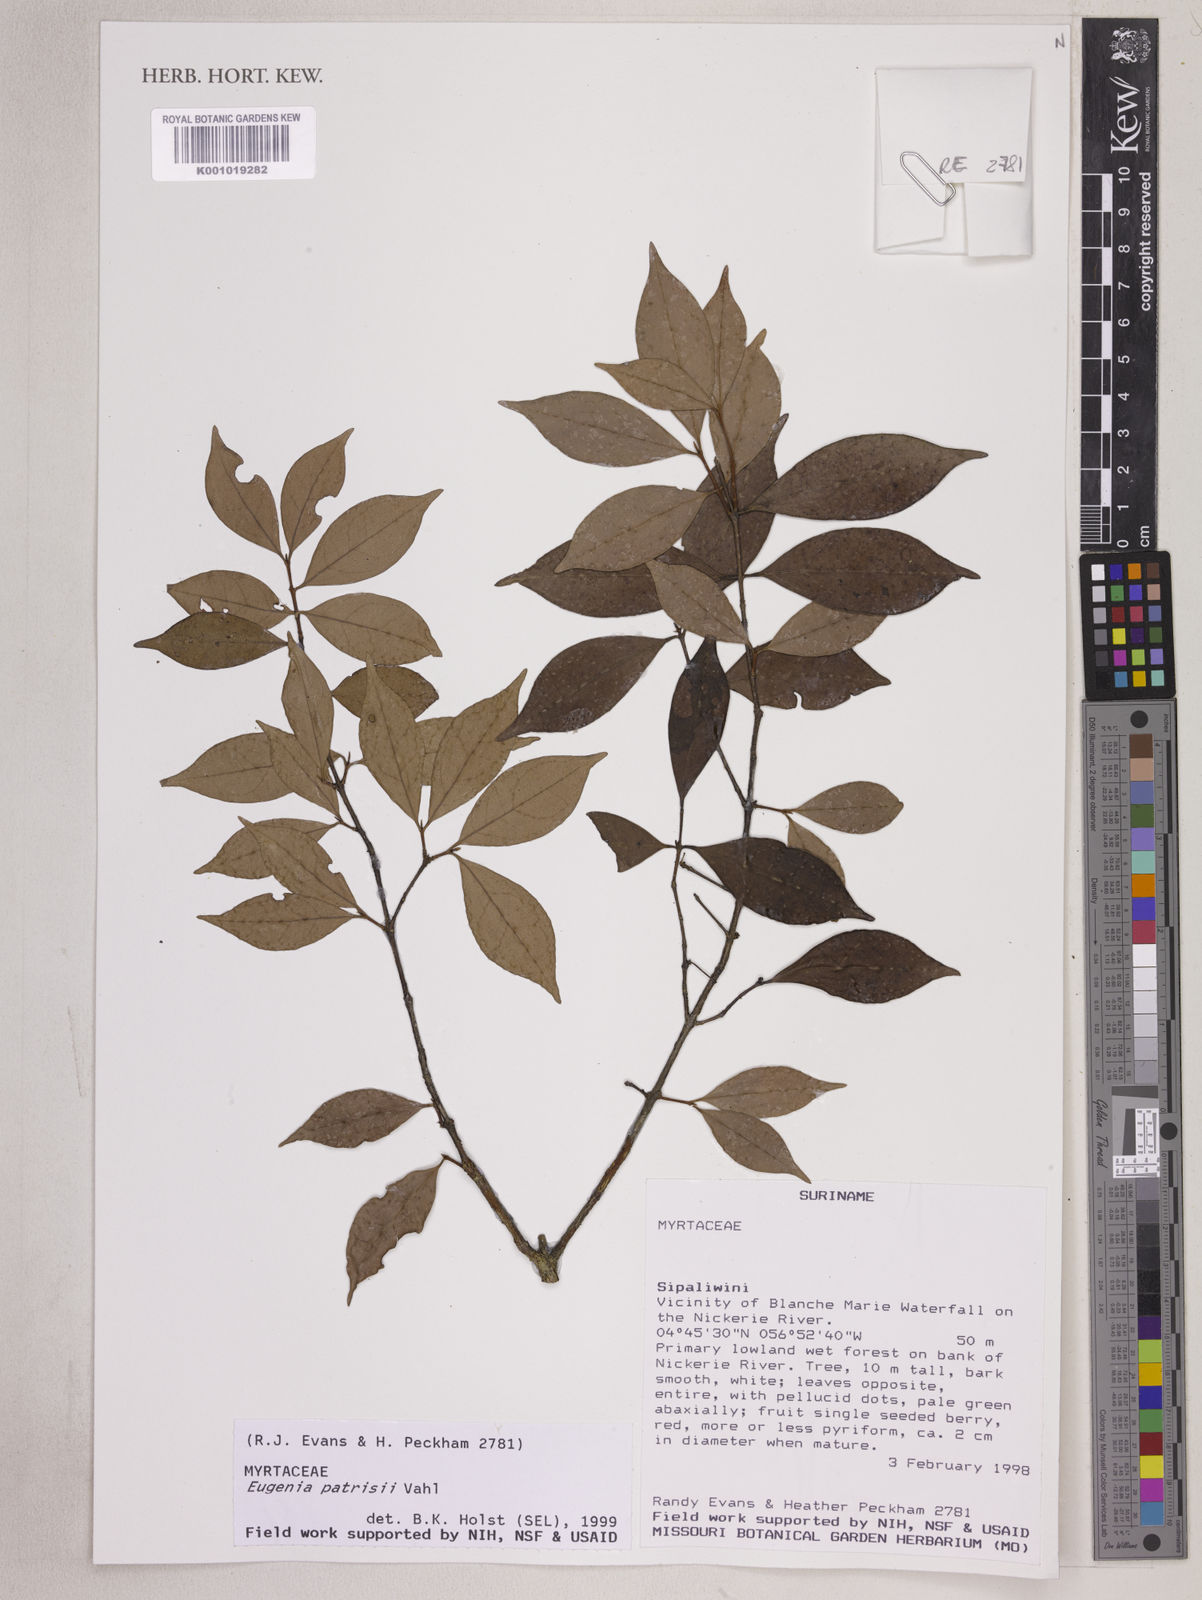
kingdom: Plantae
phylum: Tracheophyta
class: Magnoliopsida
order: Myrtales
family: Myrtaceae
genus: Eugenia
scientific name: Eugenia patrisii
